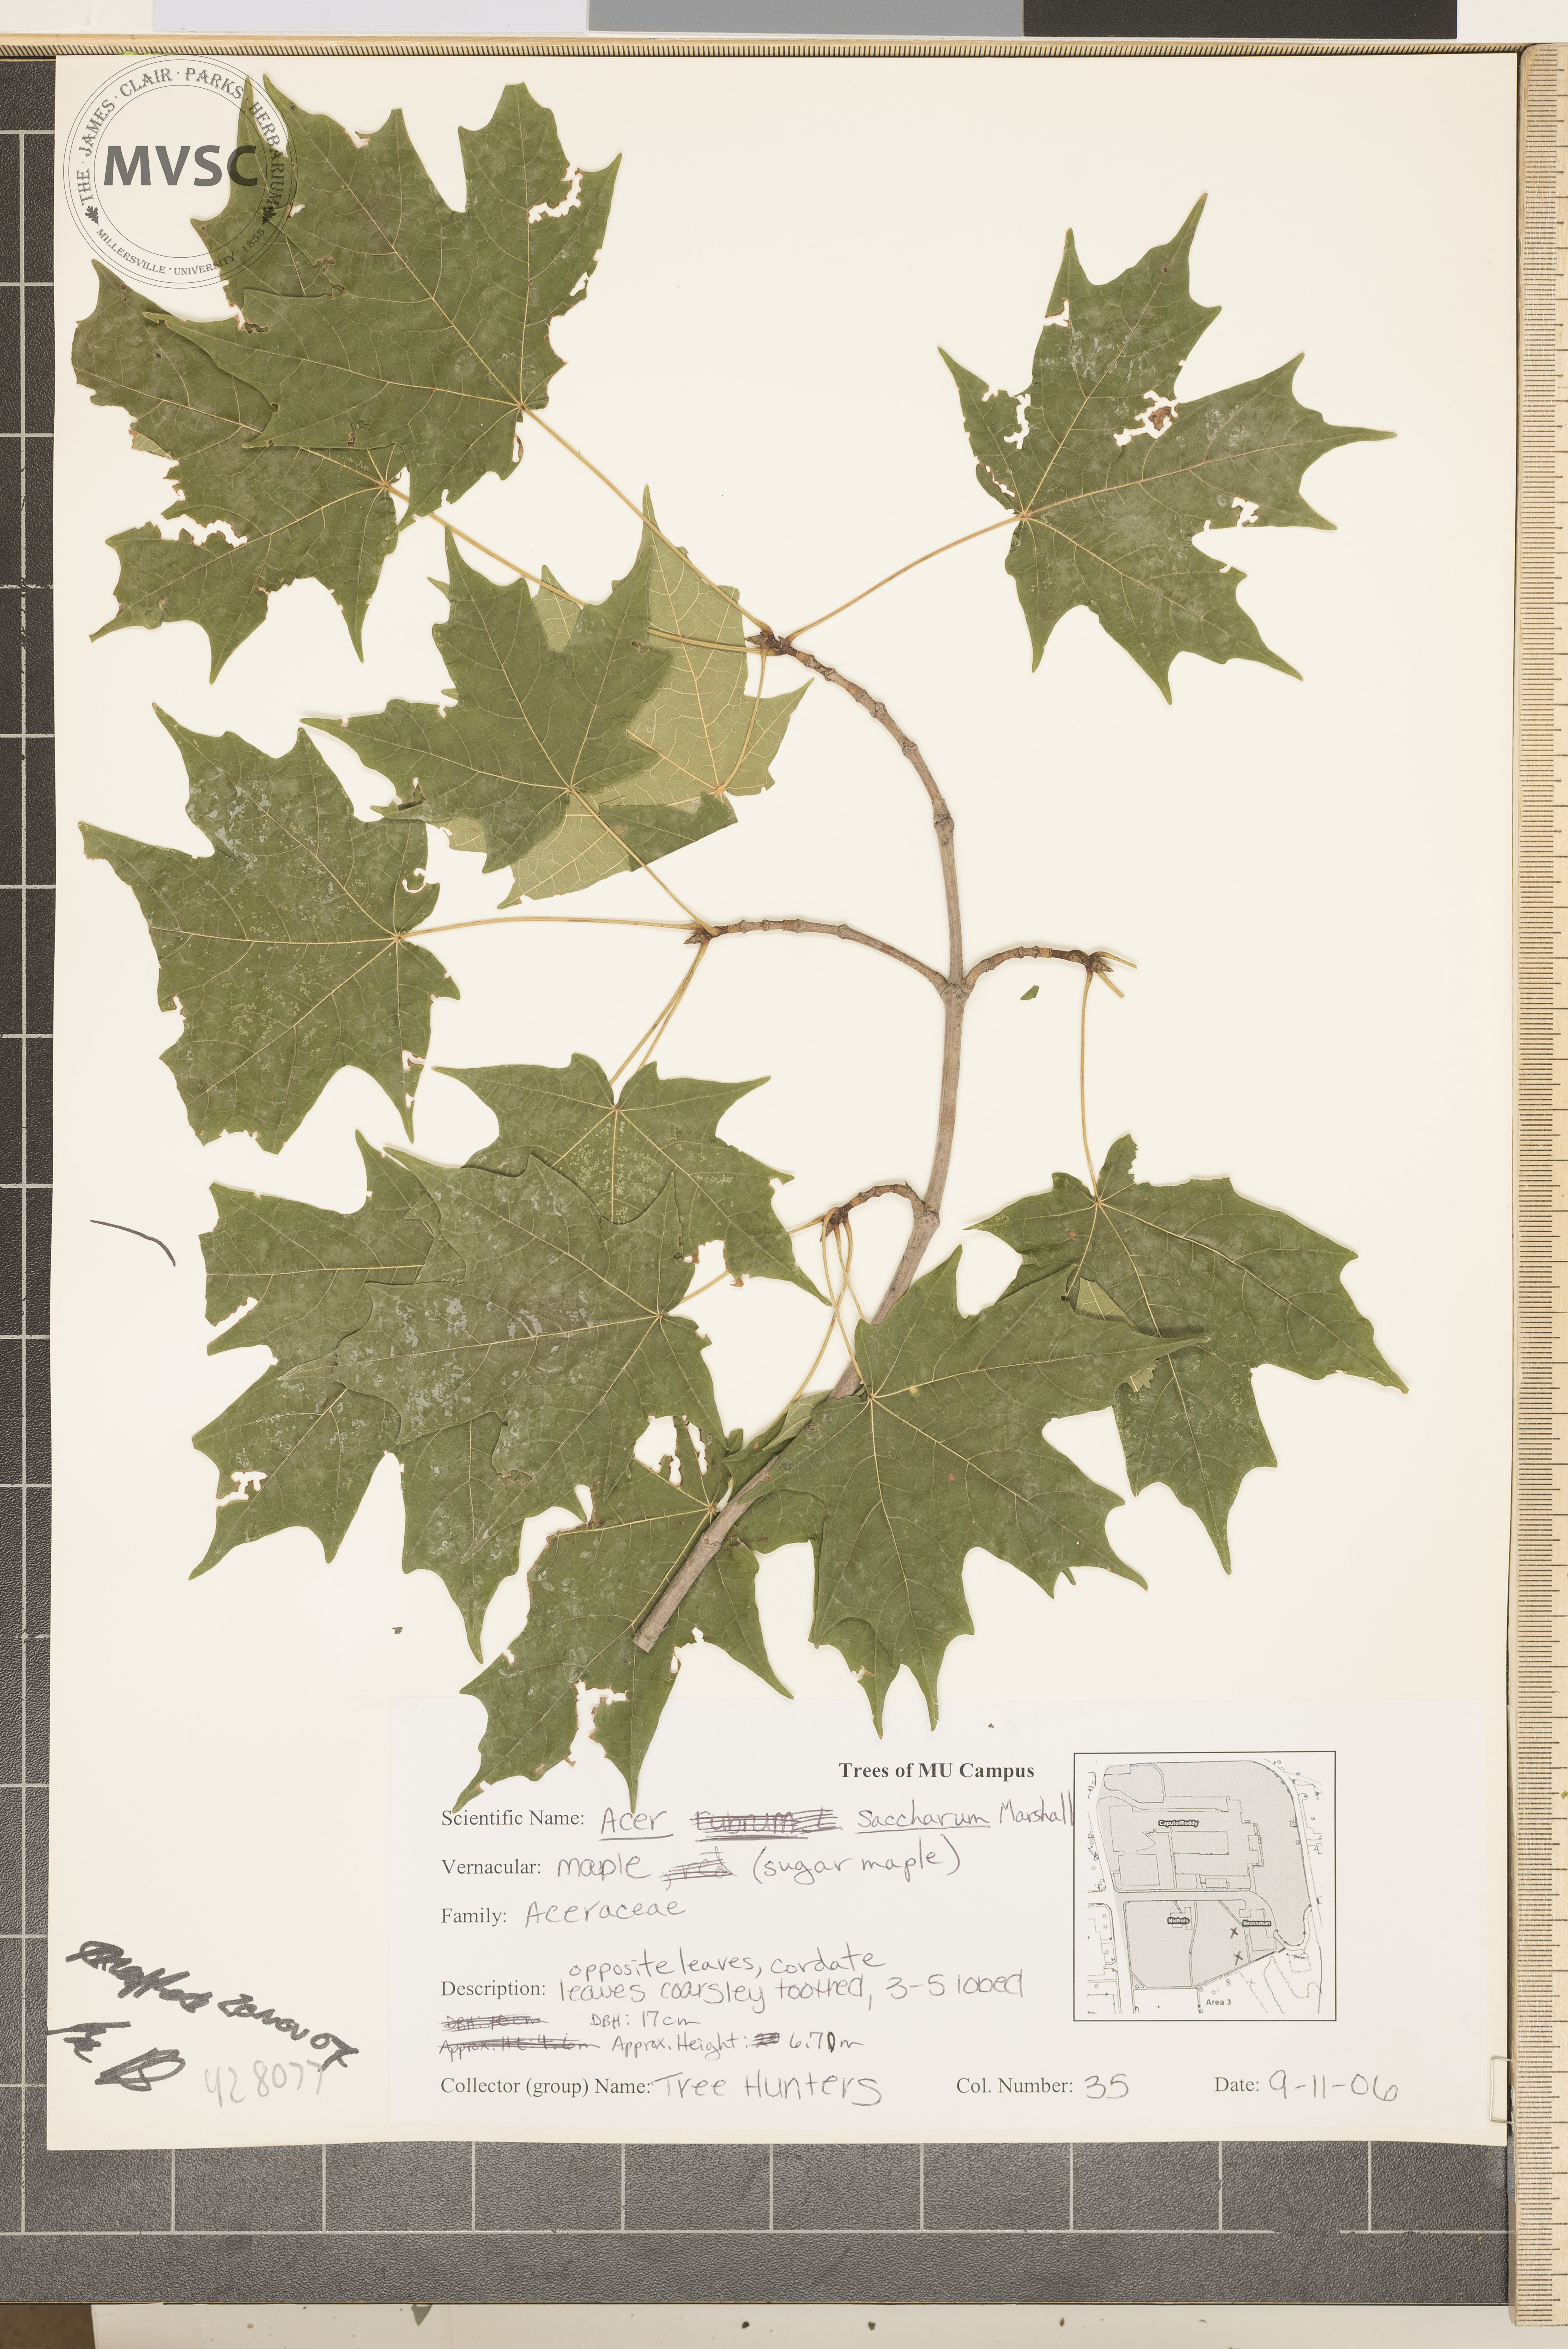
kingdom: Plantae
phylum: Tracheophyta
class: Magnoliopsida
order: Sapindales
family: Sapindaceae
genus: Acer
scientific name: Acer saccharum
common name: Sugar Maple
